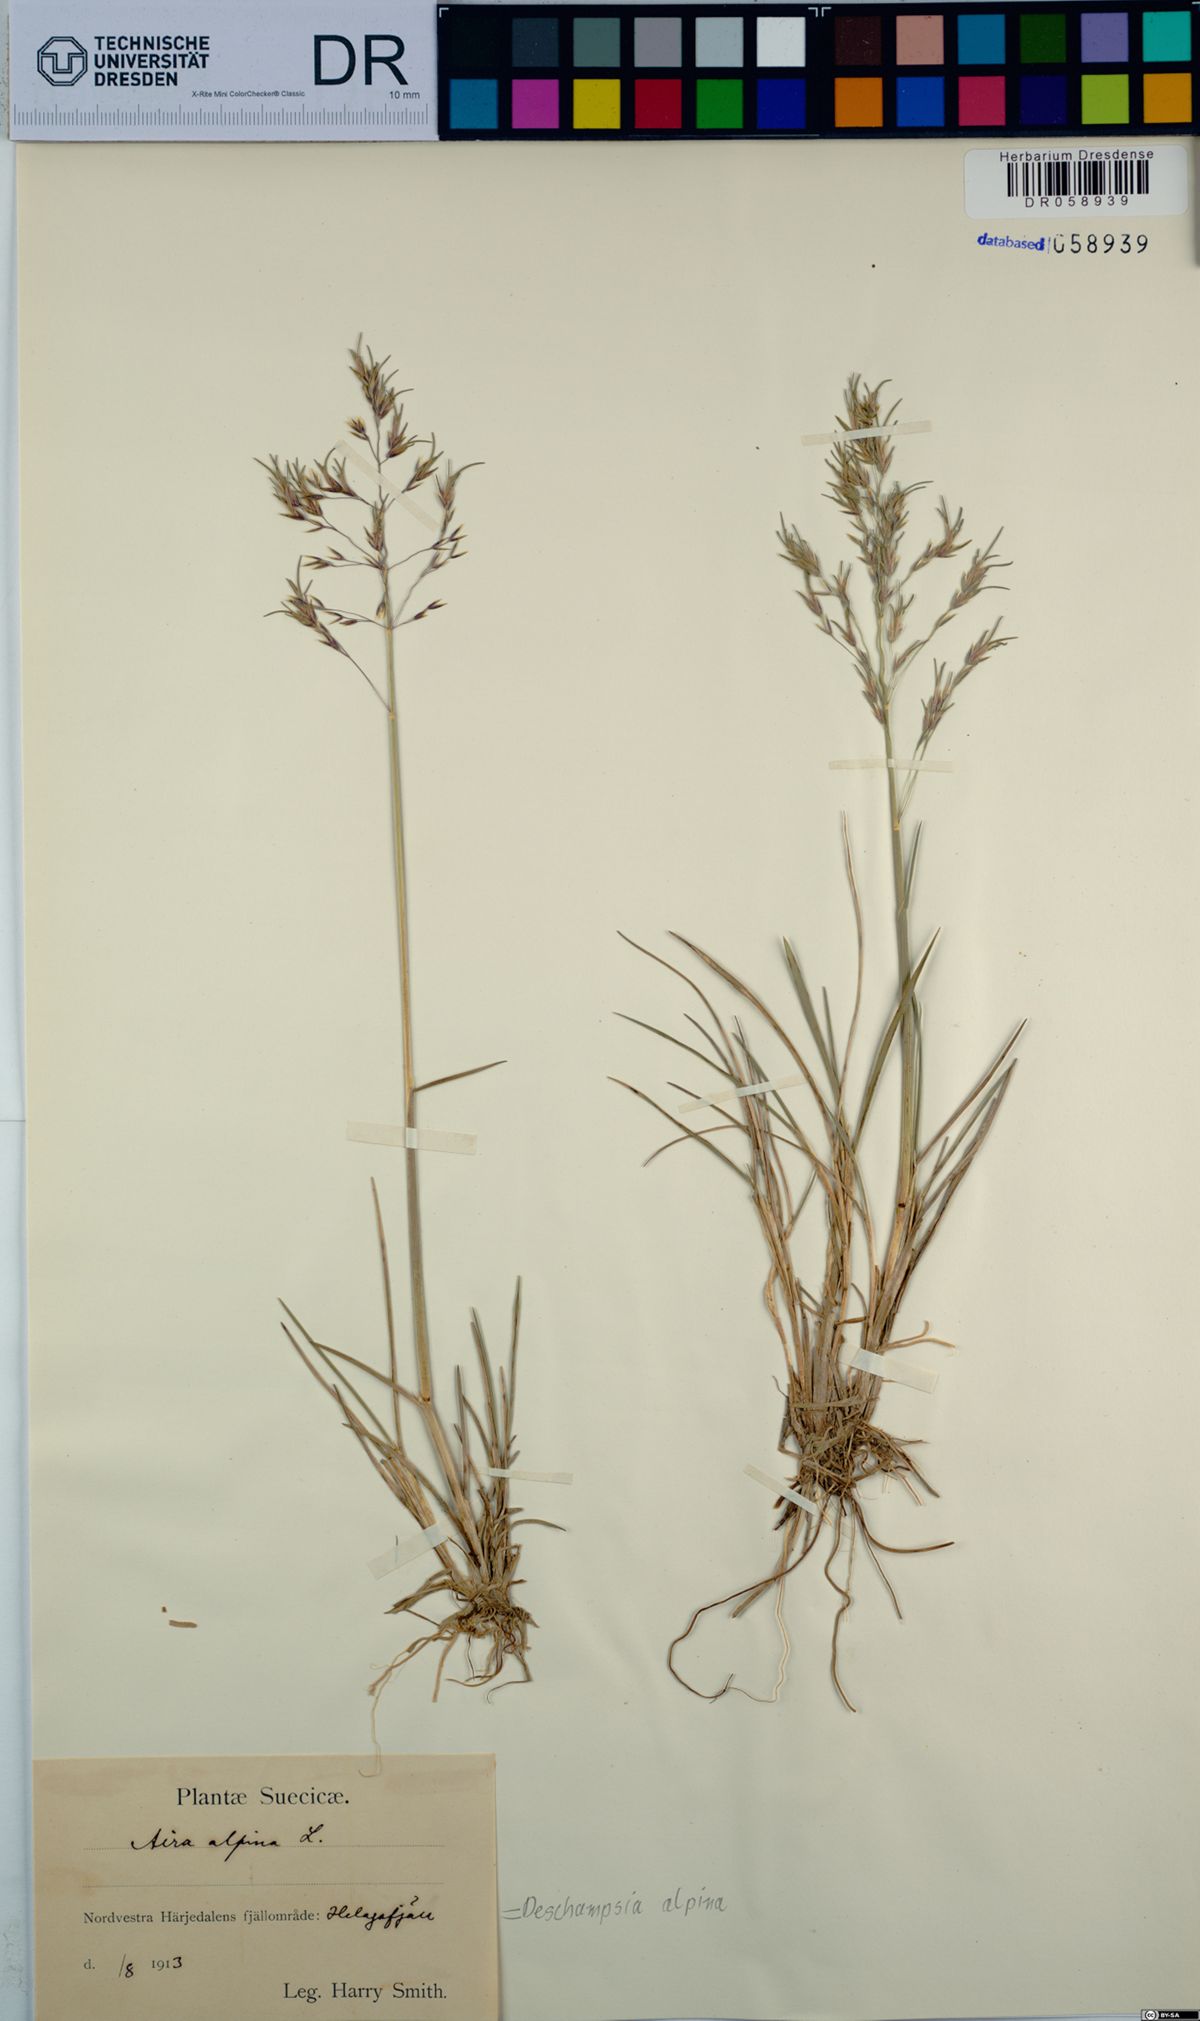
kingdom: Plantae
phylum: Tracheophyta
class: Liliopsida
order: Poales
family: Poaceae
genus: Deschampsia
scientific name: Deschampsia cespitosa
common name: Tufted hair-grass
